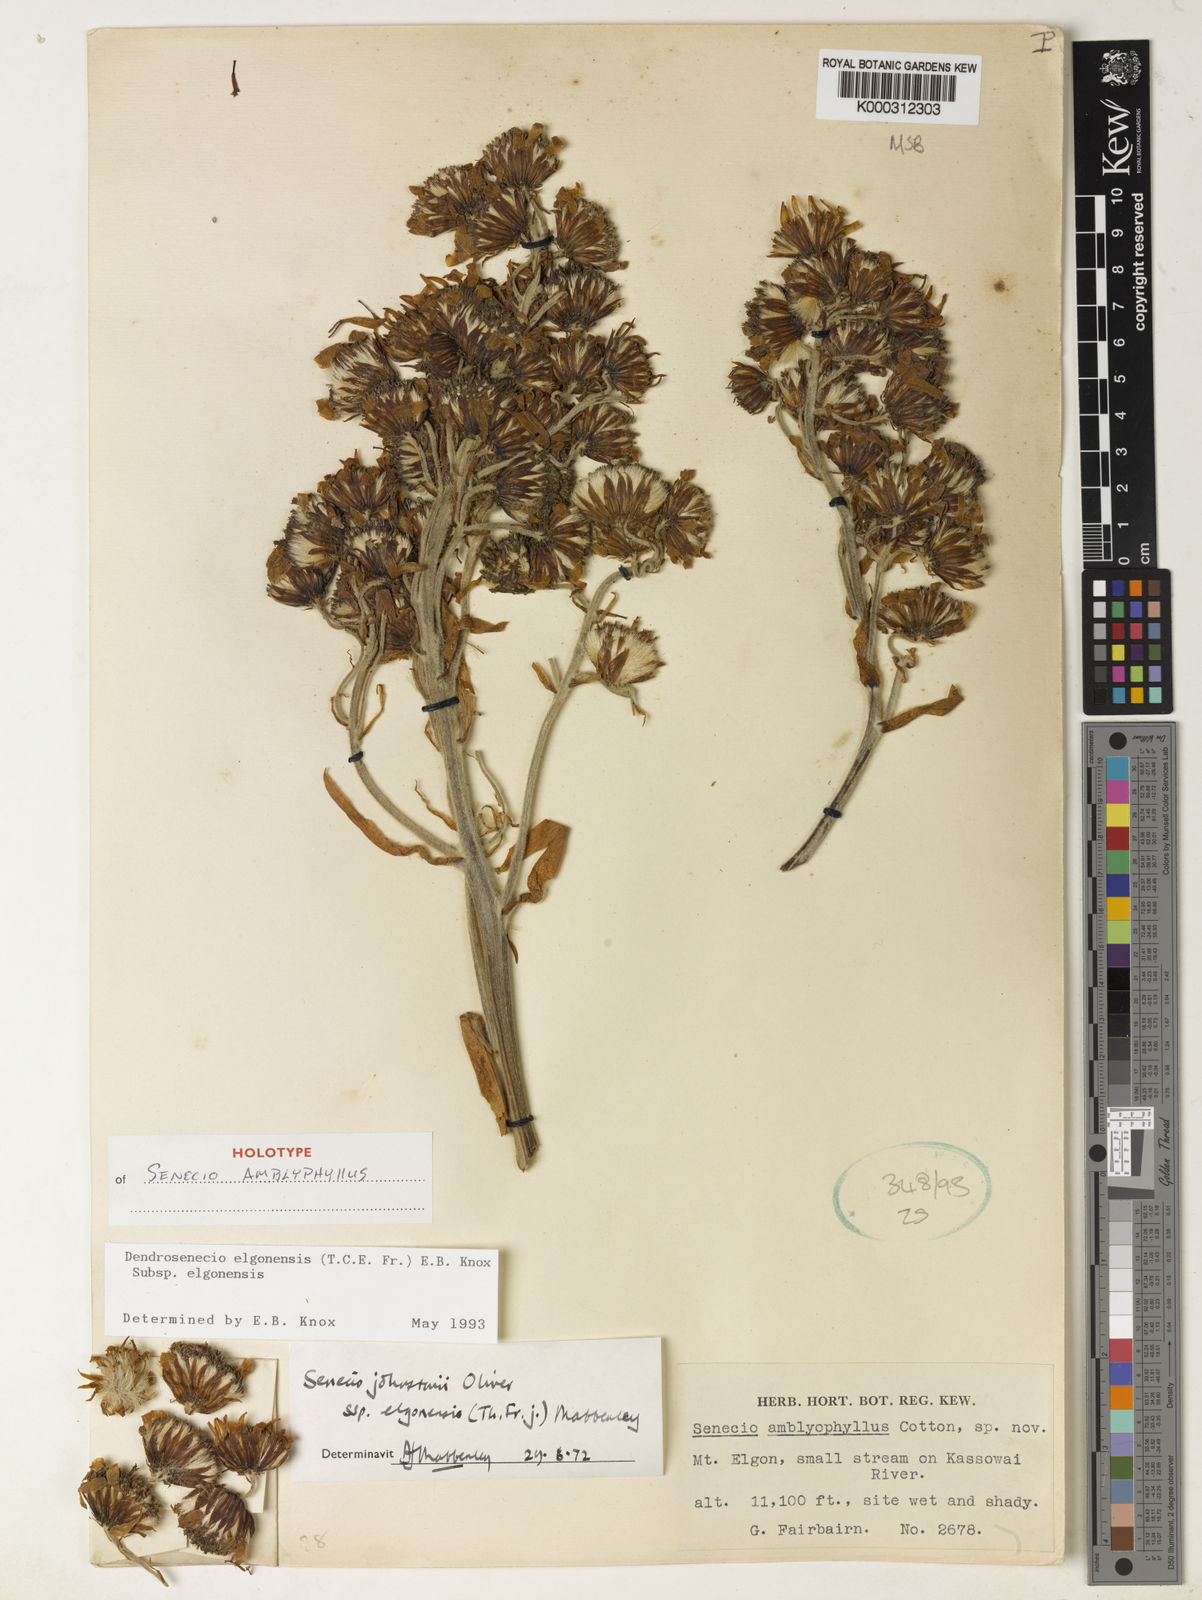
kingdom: Plantae
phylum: Tracheophyta
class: Magnoliopsida
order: Asterales
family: Asteraceae
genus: Dendrosenecio
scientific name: Dendrosenecio elgonensis
